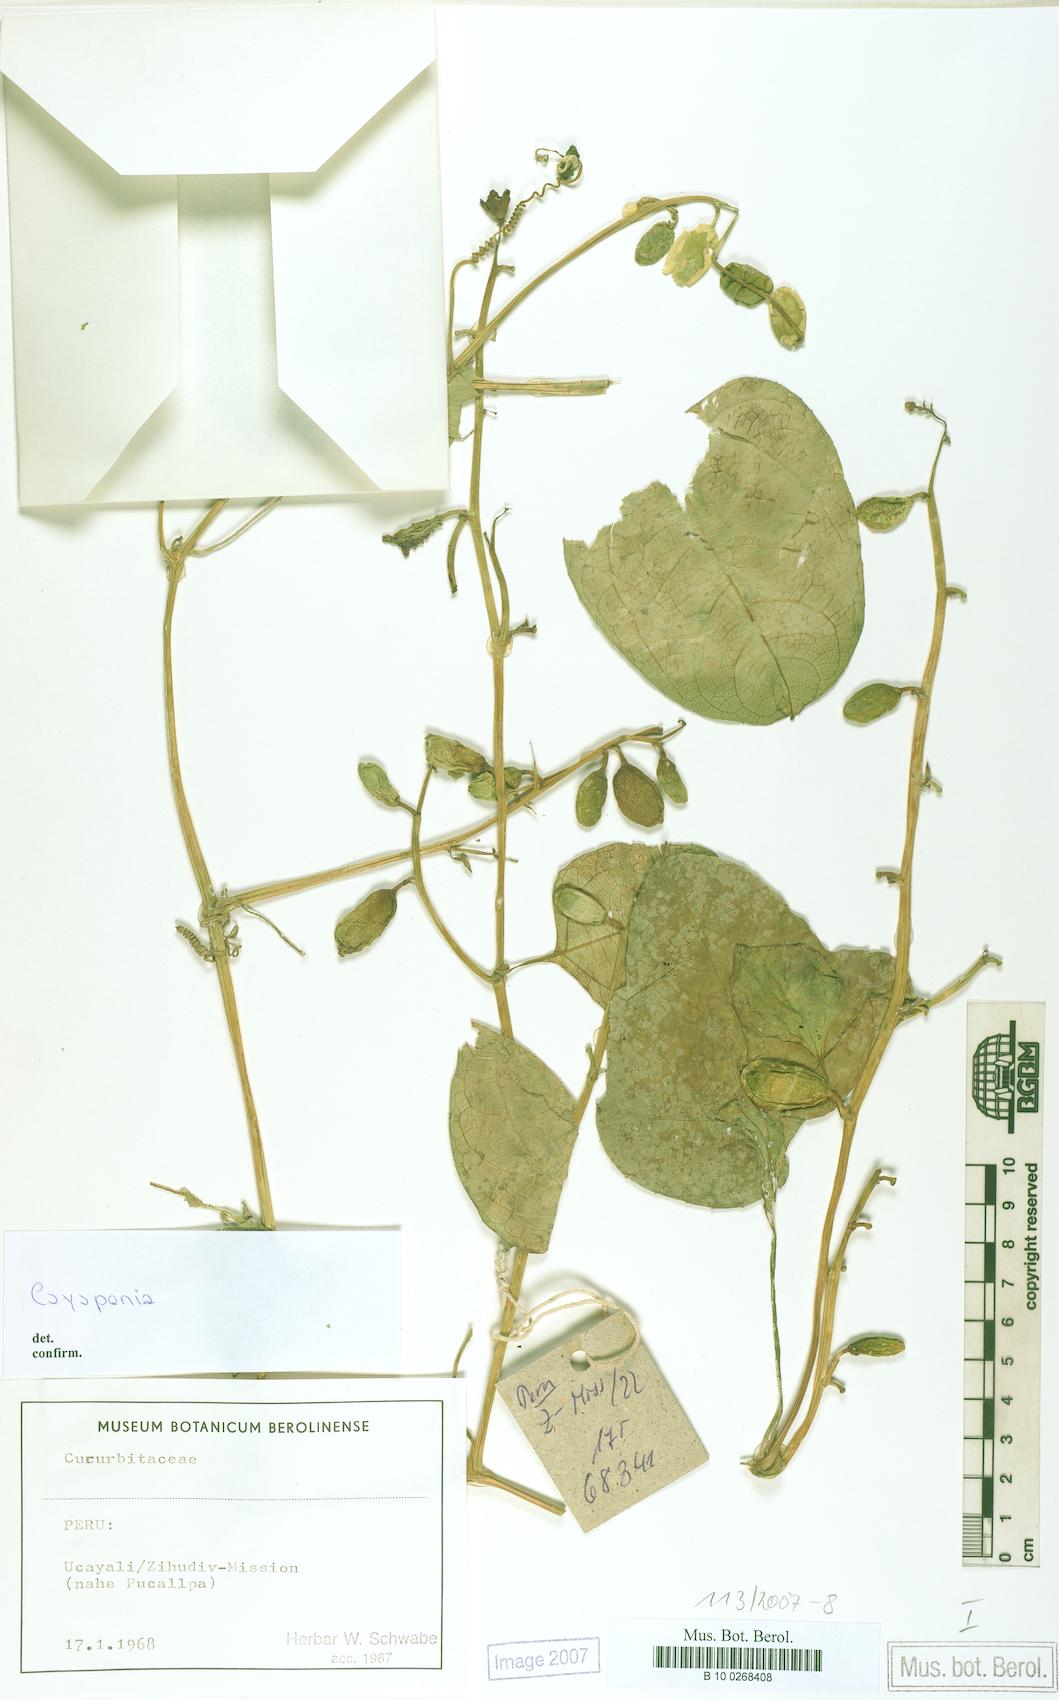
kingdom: Plantae
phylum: Tracheophyta
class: Magnoliopsida
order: Cucurbitales
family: Cucurbitaceae
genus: Cayaponia
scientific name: Cayaponia glandulosa
